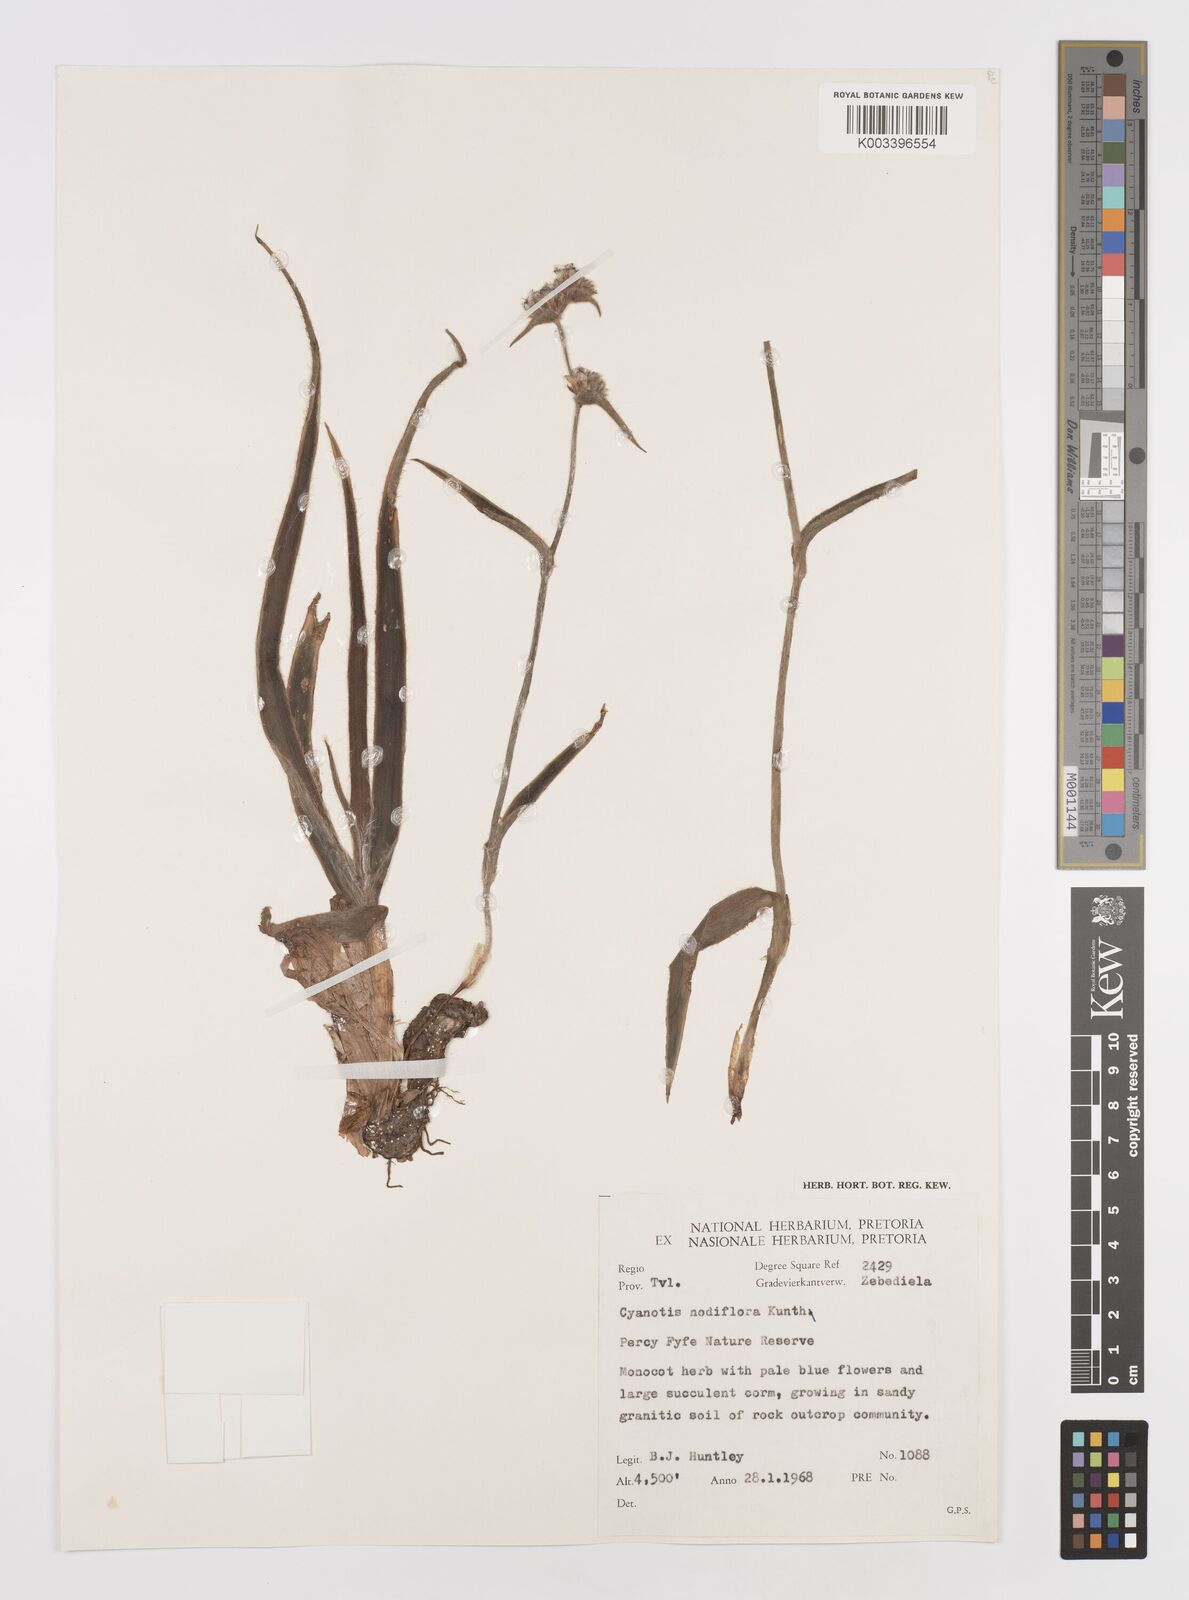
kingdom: Plantae
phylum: Tracheophyta
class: Liliopsida
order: Commelinales
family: Commelinaceae
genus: Cyanotis
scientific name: Cyanotis speciosa
